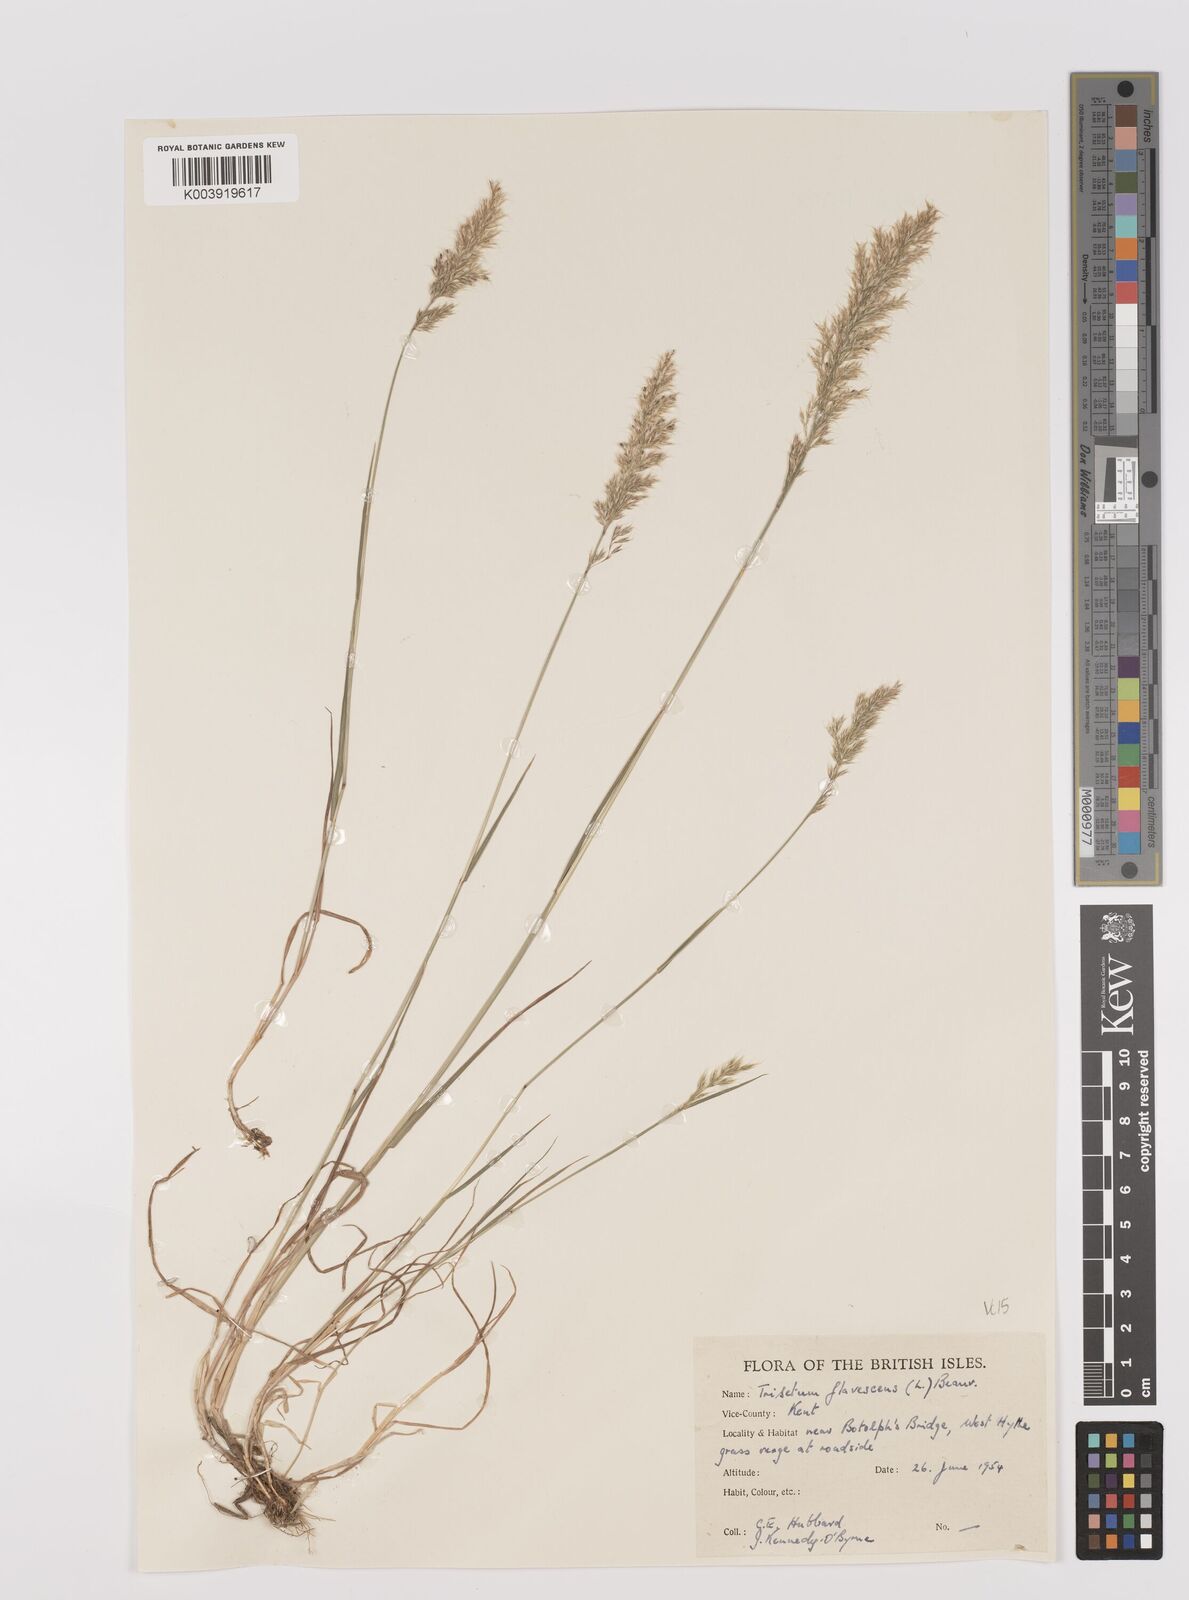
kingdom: Plantae
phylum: Tracheophyta
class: Liliopsida
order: Poales
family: Poaceae
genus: Trisetum
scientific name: Trisetum flavescens
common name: Yellow oat-grass
